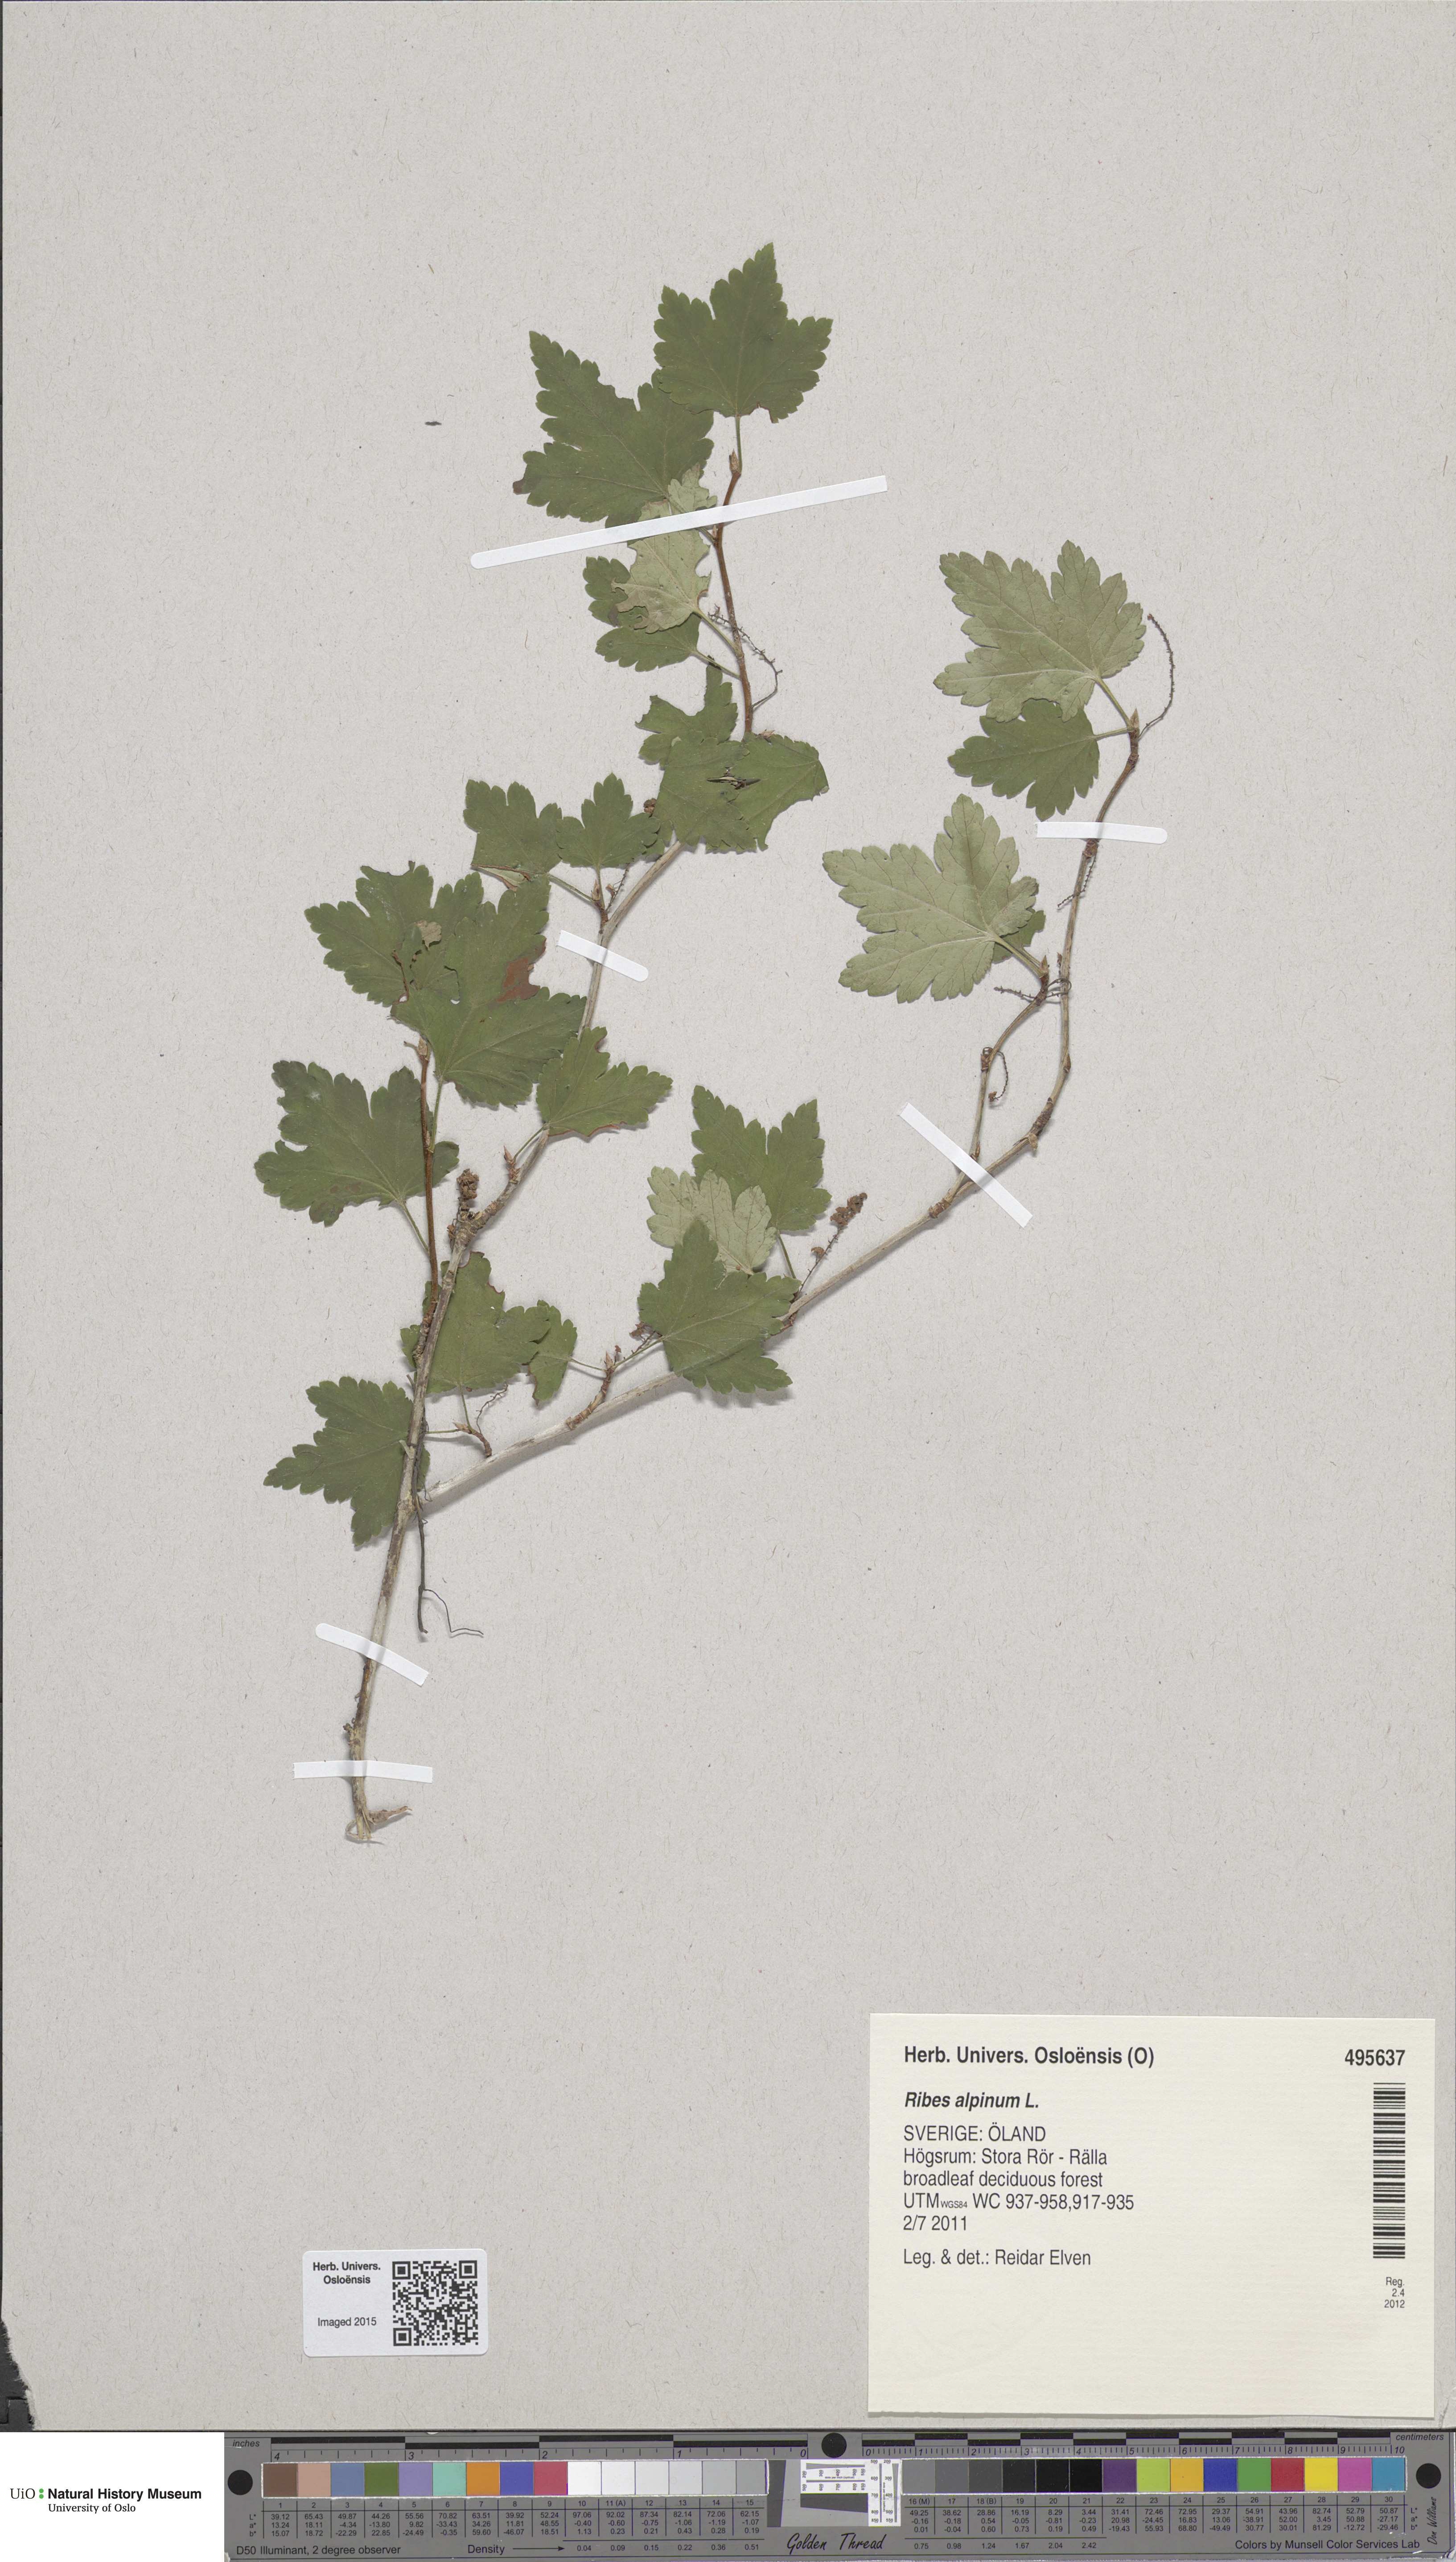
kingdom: Plantae
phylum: Tracheophyta
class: Magnoliopsida
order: Saxifragales
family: Grossulariaceae
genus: Ribes
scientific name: Ribes alpinum
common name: Alpine currant
